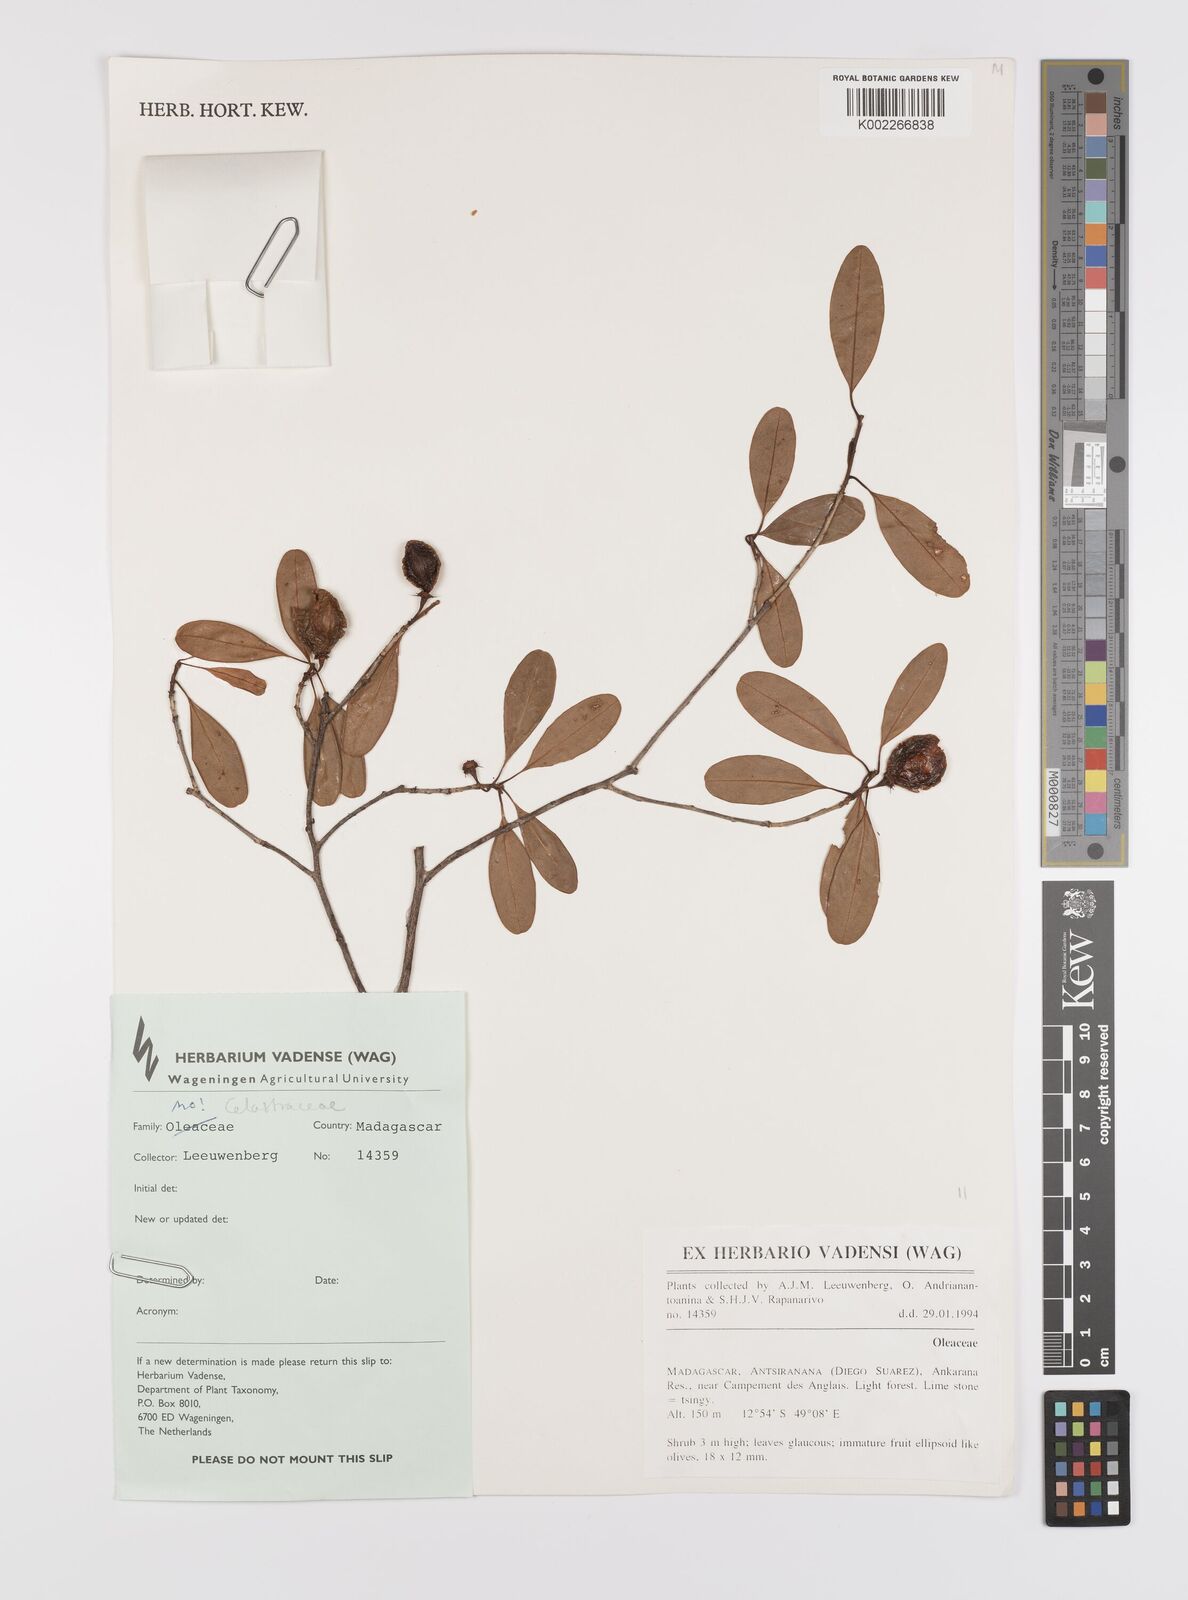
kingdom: Plantae
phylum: Tracheophyta
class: Magnoliopsida
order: Celastrales
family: Celastraceae
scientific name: Celastraceae
